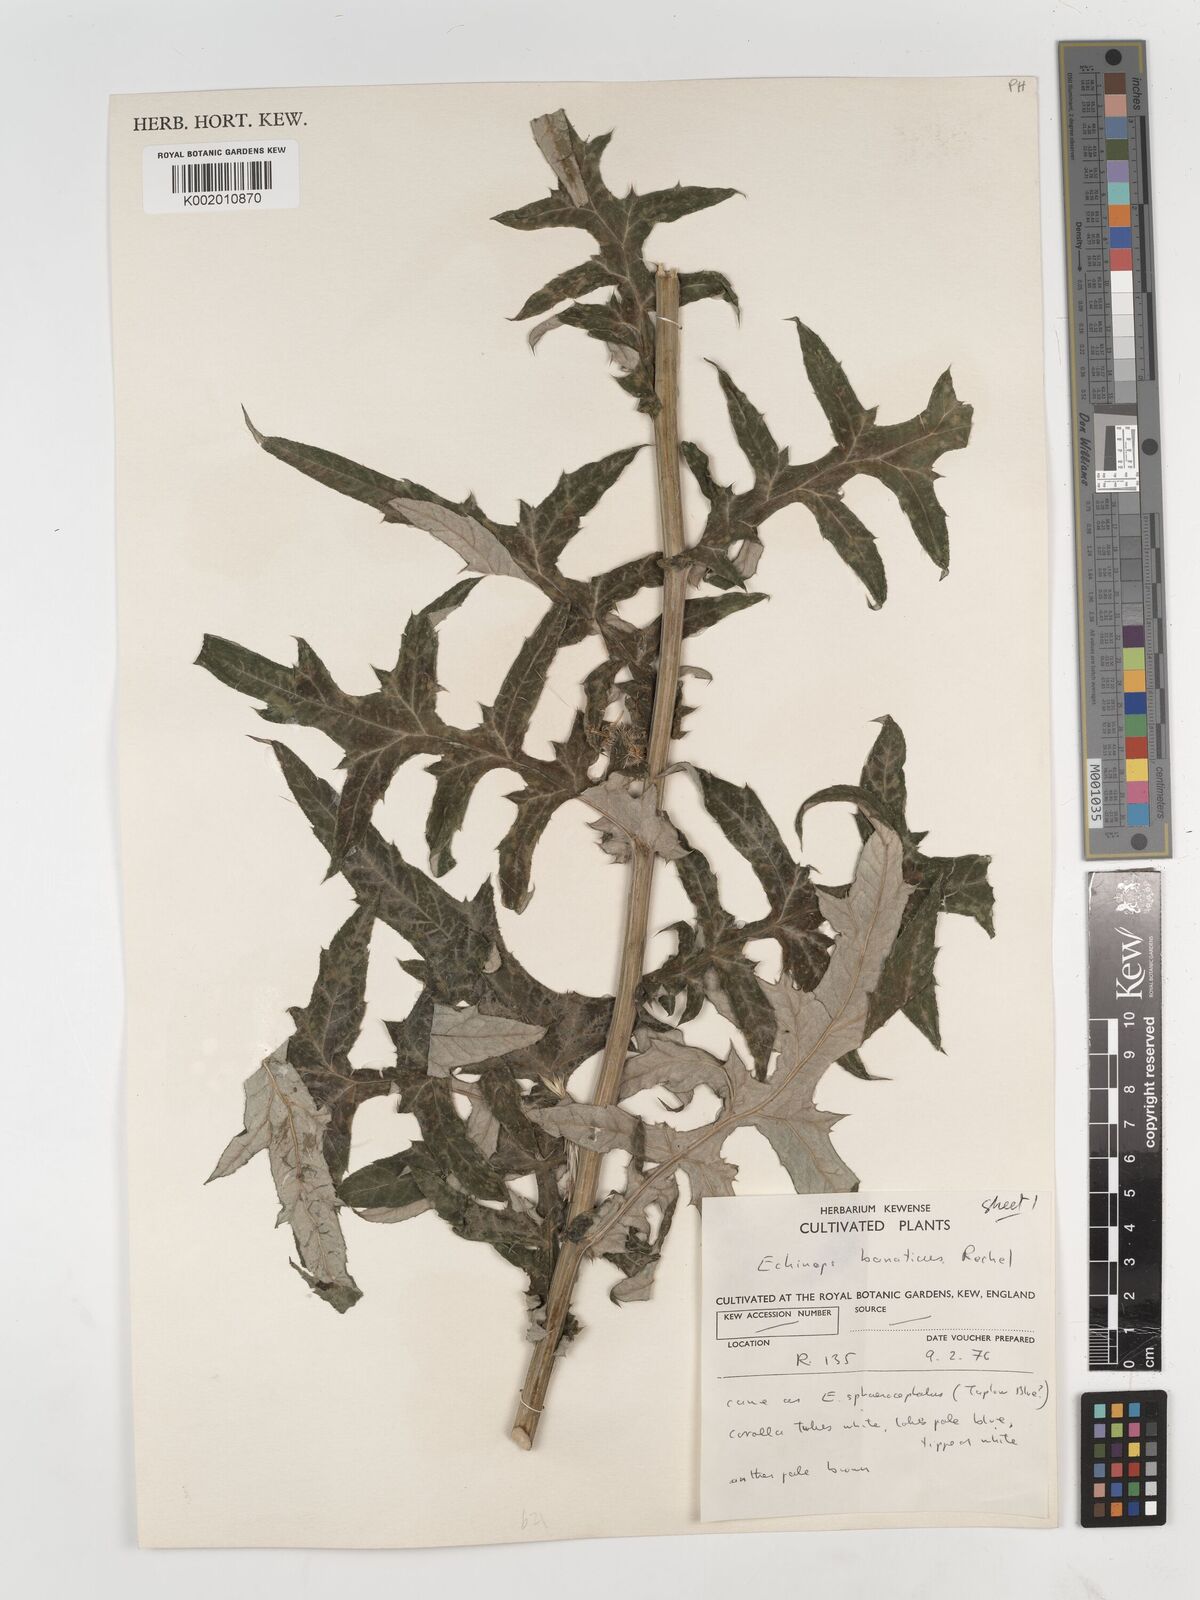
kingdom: Plantae
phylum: Tracheophyta
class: Magnoliopsida
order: Asterales
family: Asteraceae
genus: Echinops
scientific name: Echinops bannaticus
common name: Blue globe-thistle
